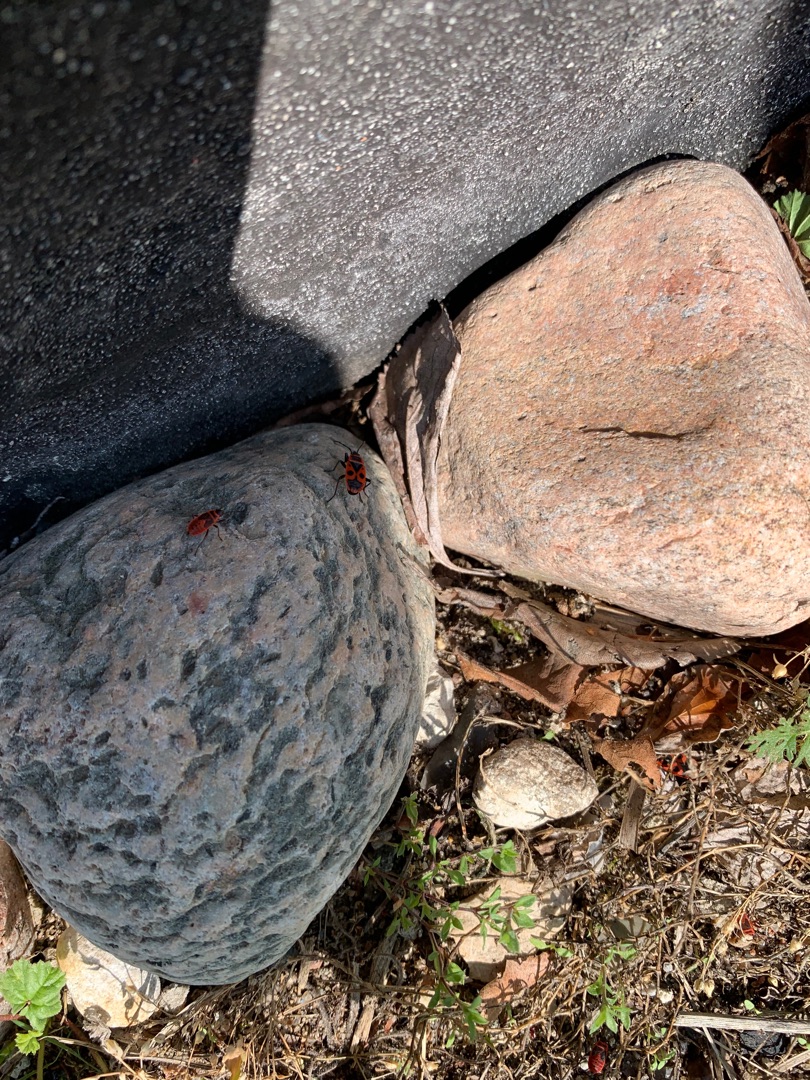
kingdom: Animalia
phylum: Arthropoda
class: Insecta
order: Hemiptera
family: Pyrrhocoridae
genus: Pyrrhocoris
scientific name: Pyrrhocoris apterus
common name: Ildtæge
